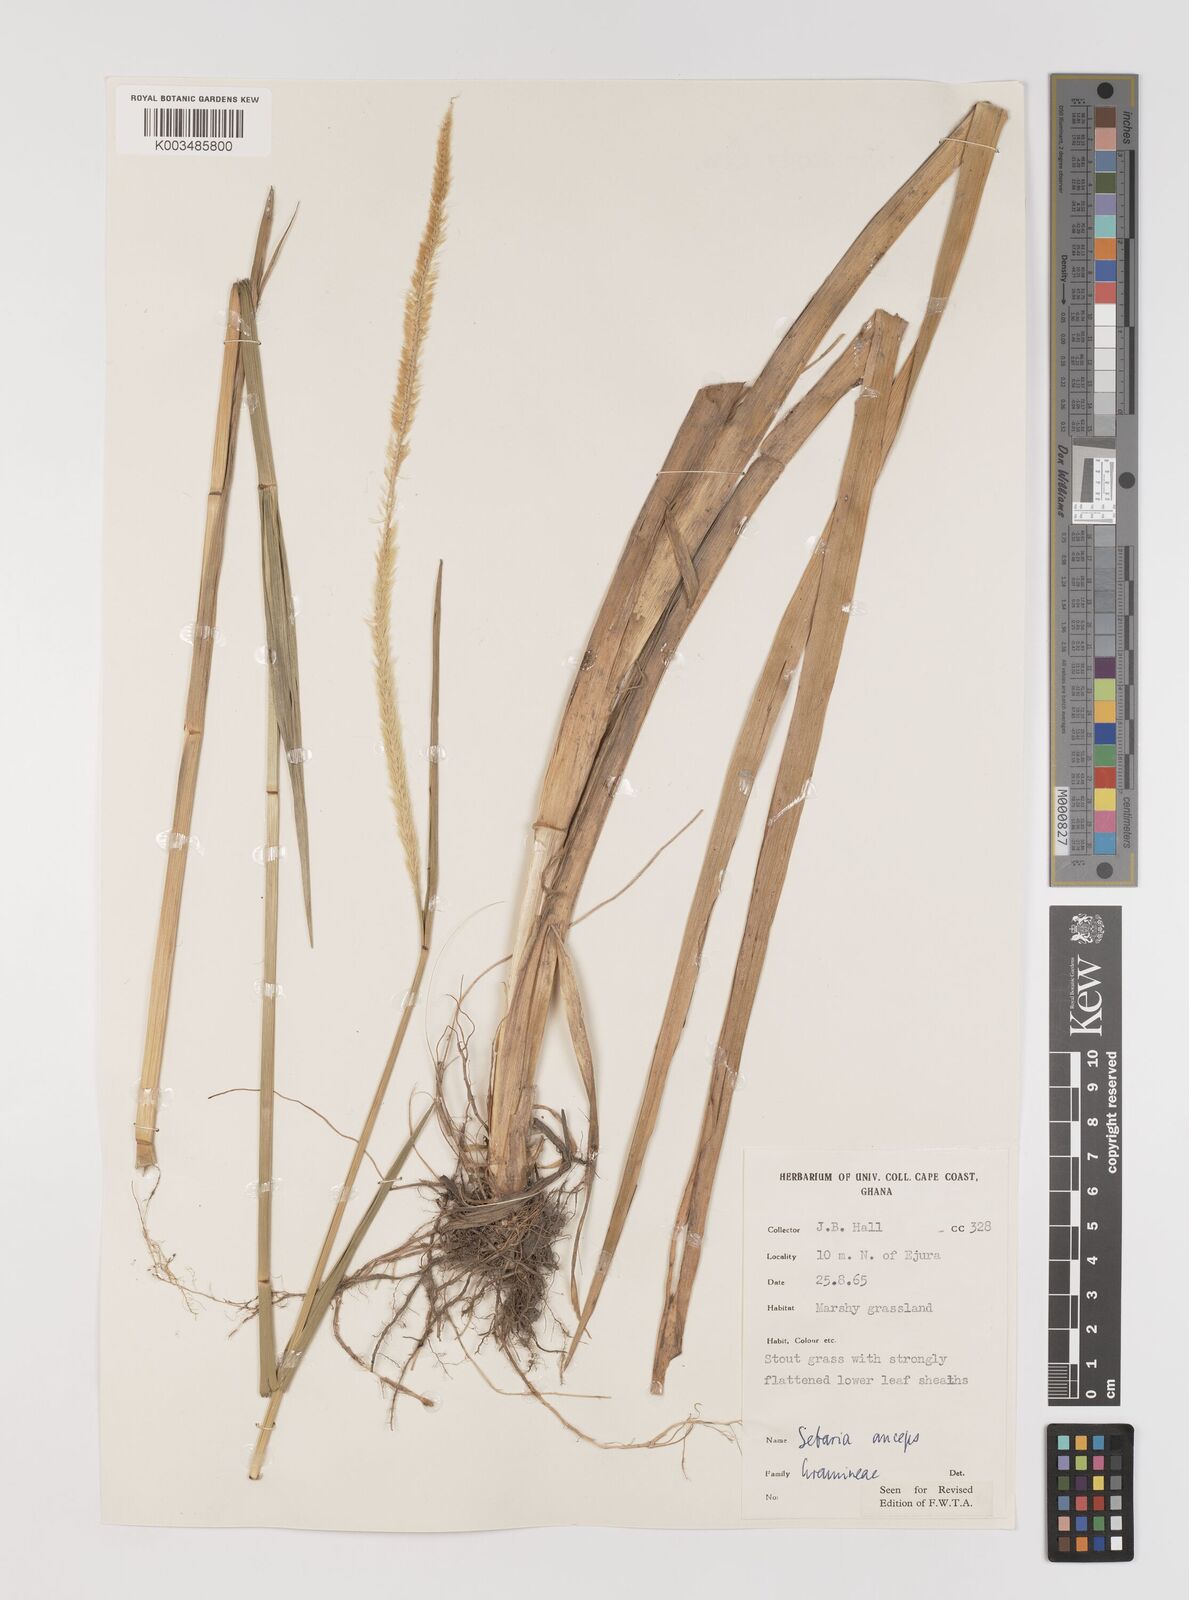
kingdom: Plantae
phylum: Tracheophyta
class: Liliopsida
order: Poales
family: Poaceae
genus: Setaria
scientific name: Setaria sphacelata
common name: African bristlegrass
